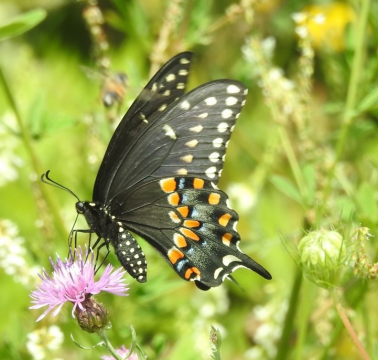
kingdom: Animalia
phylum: Arthropoda
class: Insecta
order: Lepidoptera
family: Papilionidae
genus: Papilio
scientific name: Papilio polyxenes
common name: Black Swallowtail
